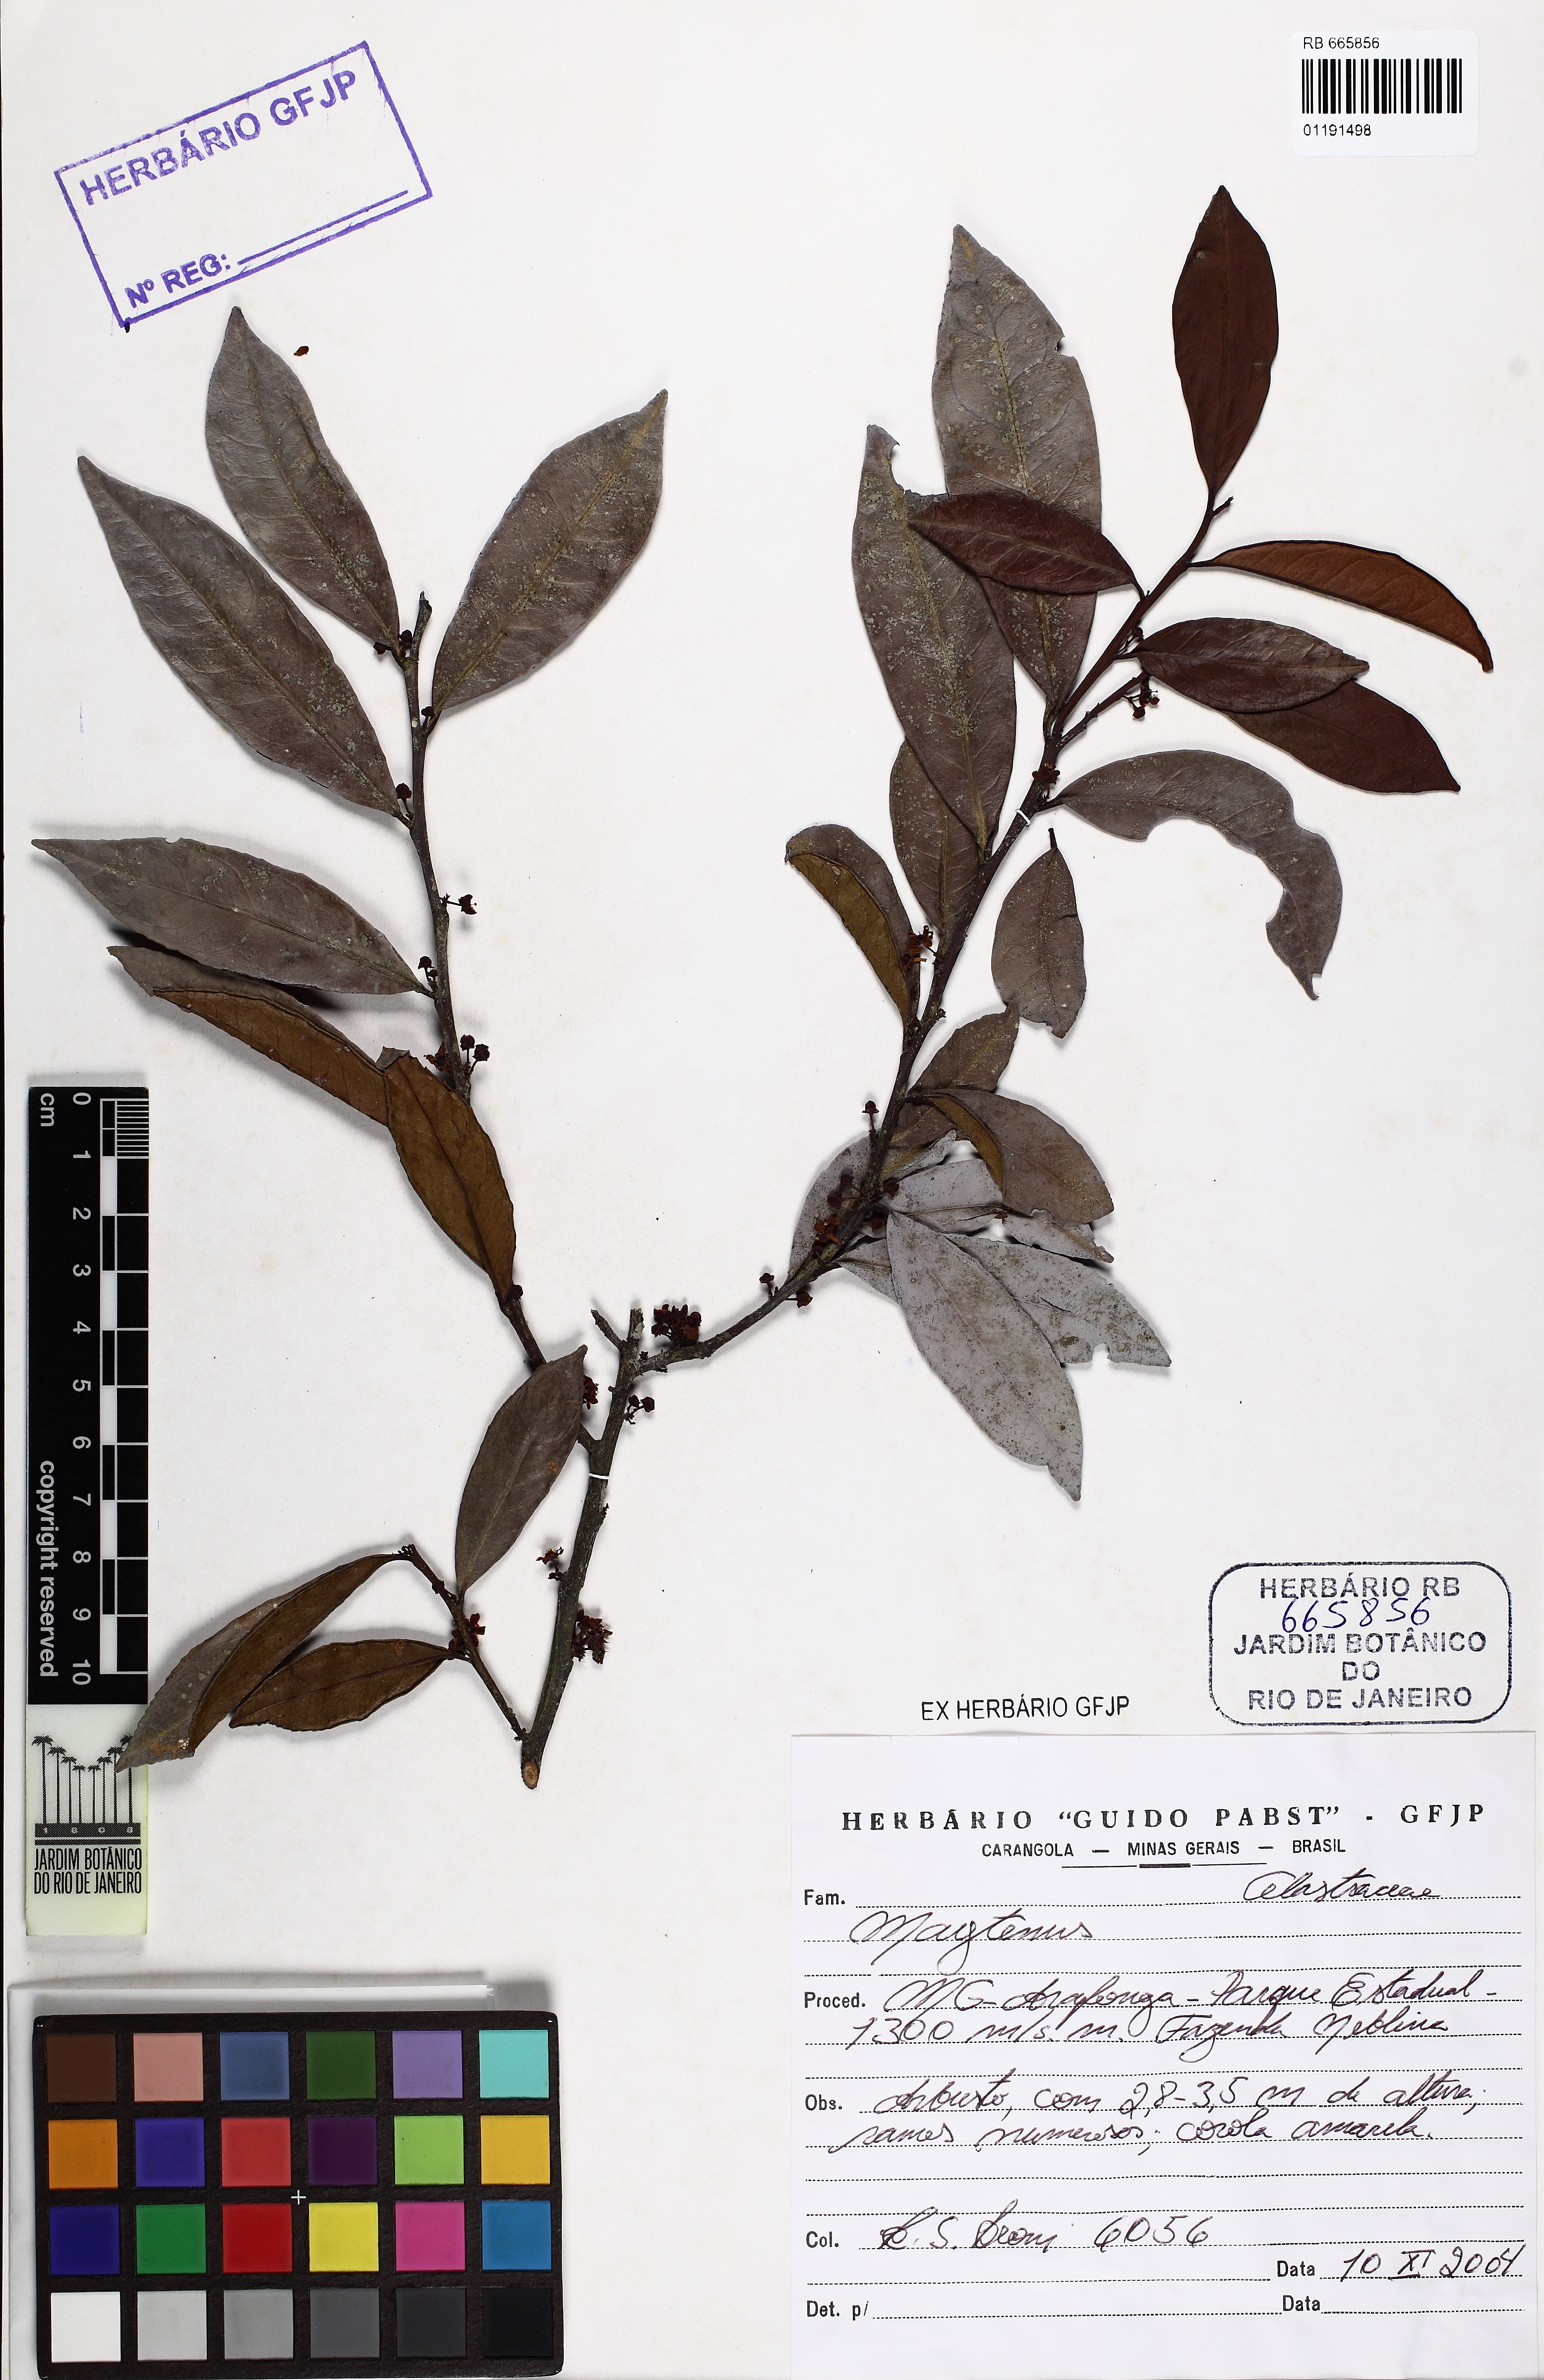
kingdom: Plantae
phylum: Tracheophyta
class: Magnoliopsida
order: Celastrales
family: Celastraceae
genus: Maytenus
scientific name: Maytenus
